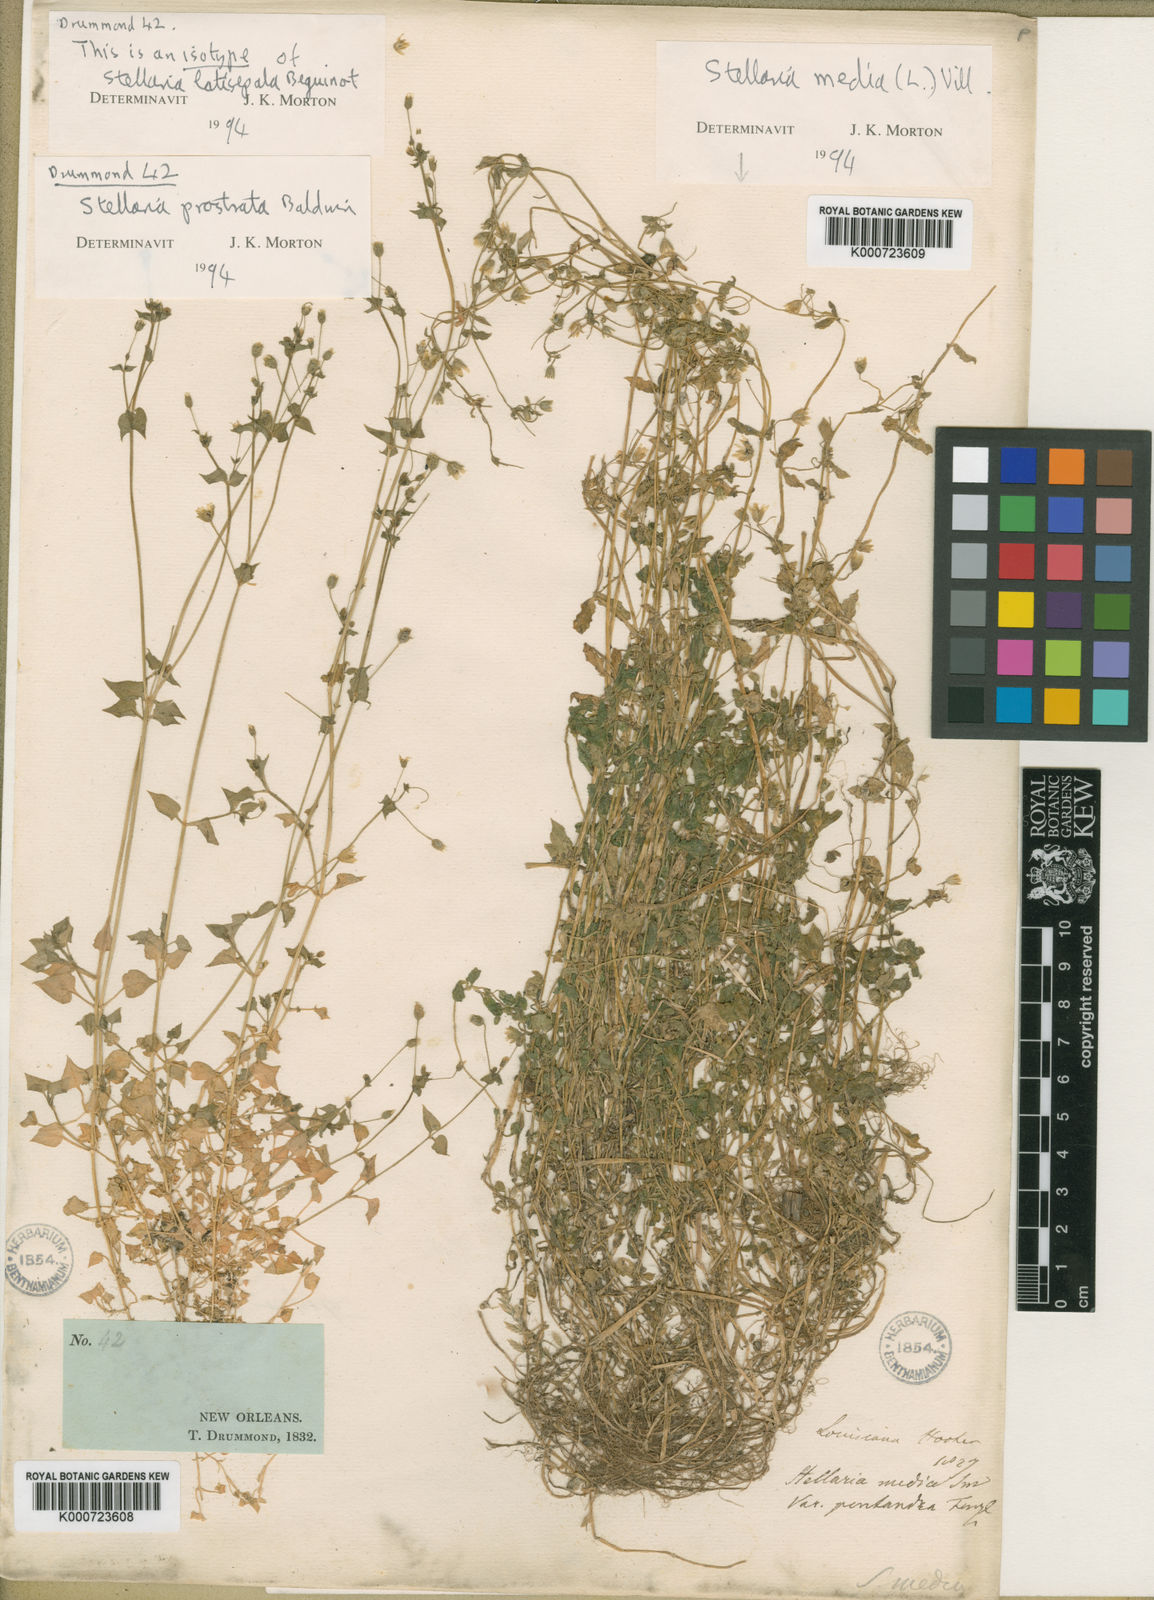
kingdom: Plantae
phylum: Tracheophyta
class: Magnoliopsida
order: Caryophyllales
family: Caryophyllaceae
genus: Stellaria
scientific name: Stellaria cuspidata
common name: Mexican chickweed
